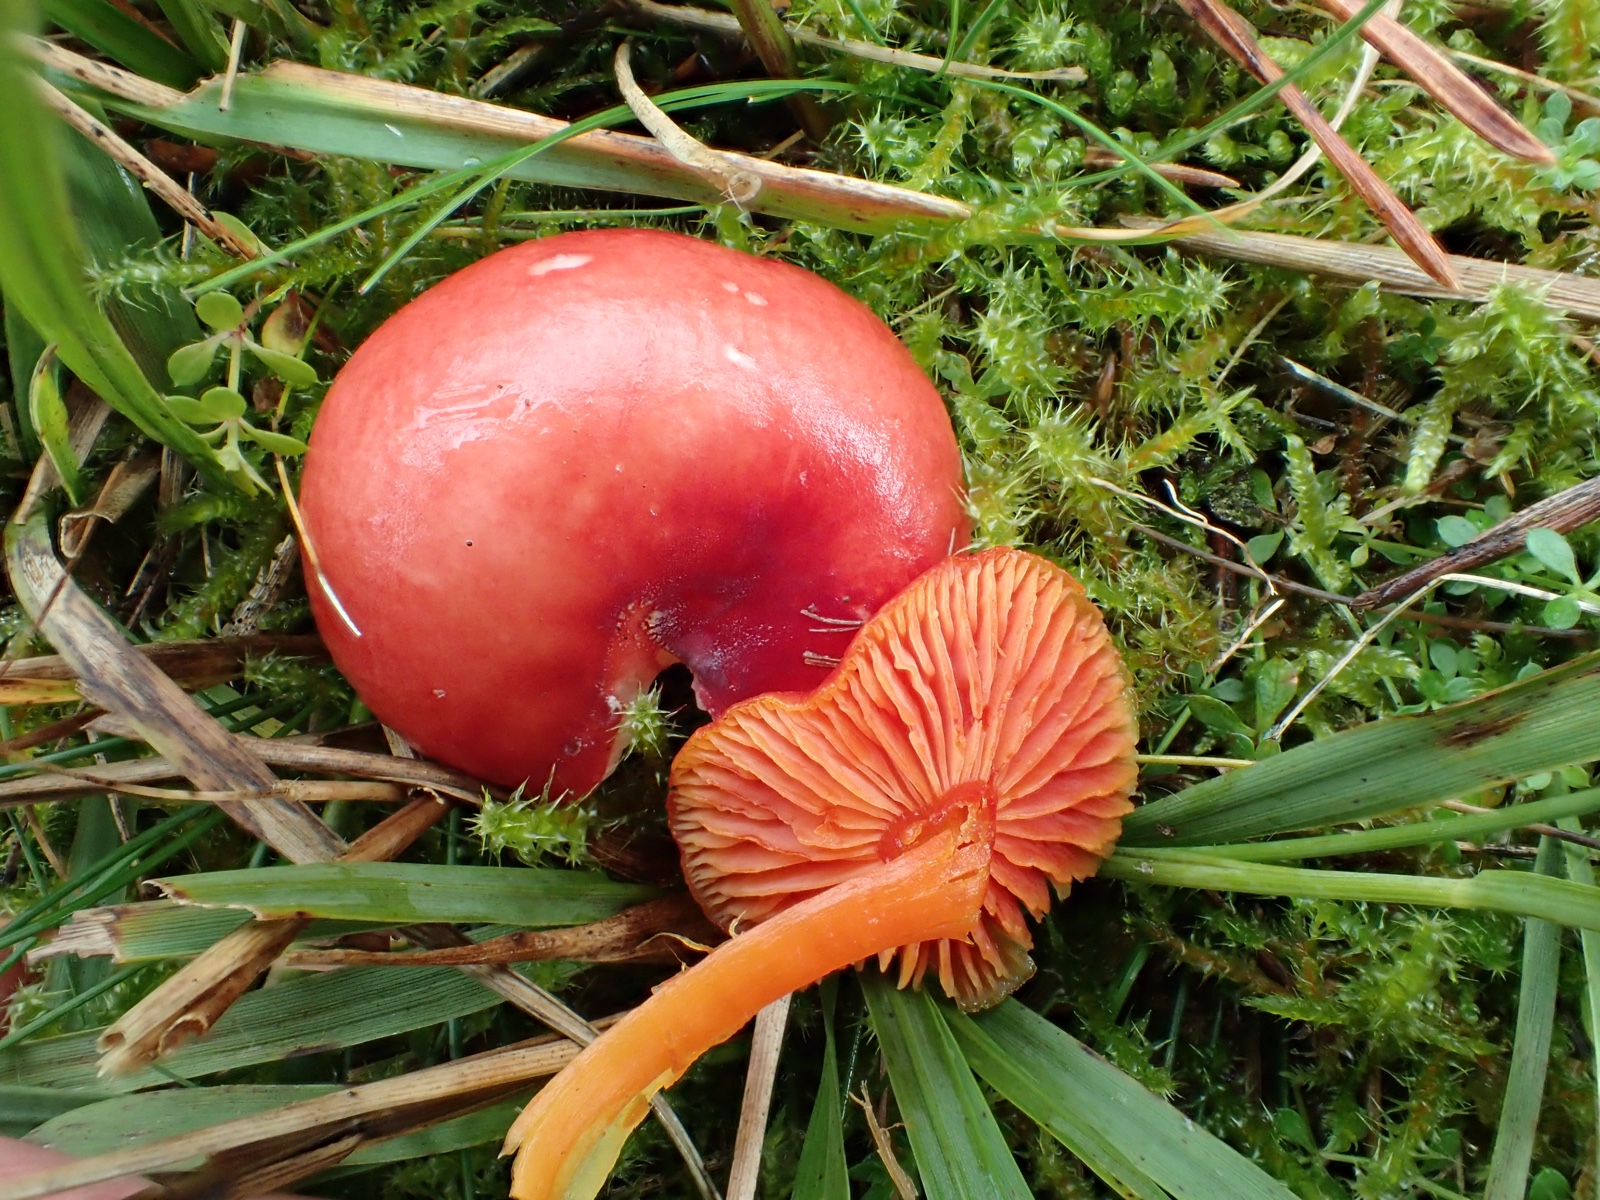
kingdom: Fungi
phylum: Basidiomycota
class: Agaricomycetes
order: Agaricales
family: Hygrophoraceae
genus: Hygrocybe
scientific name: Hygrocybe
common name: vokshat
